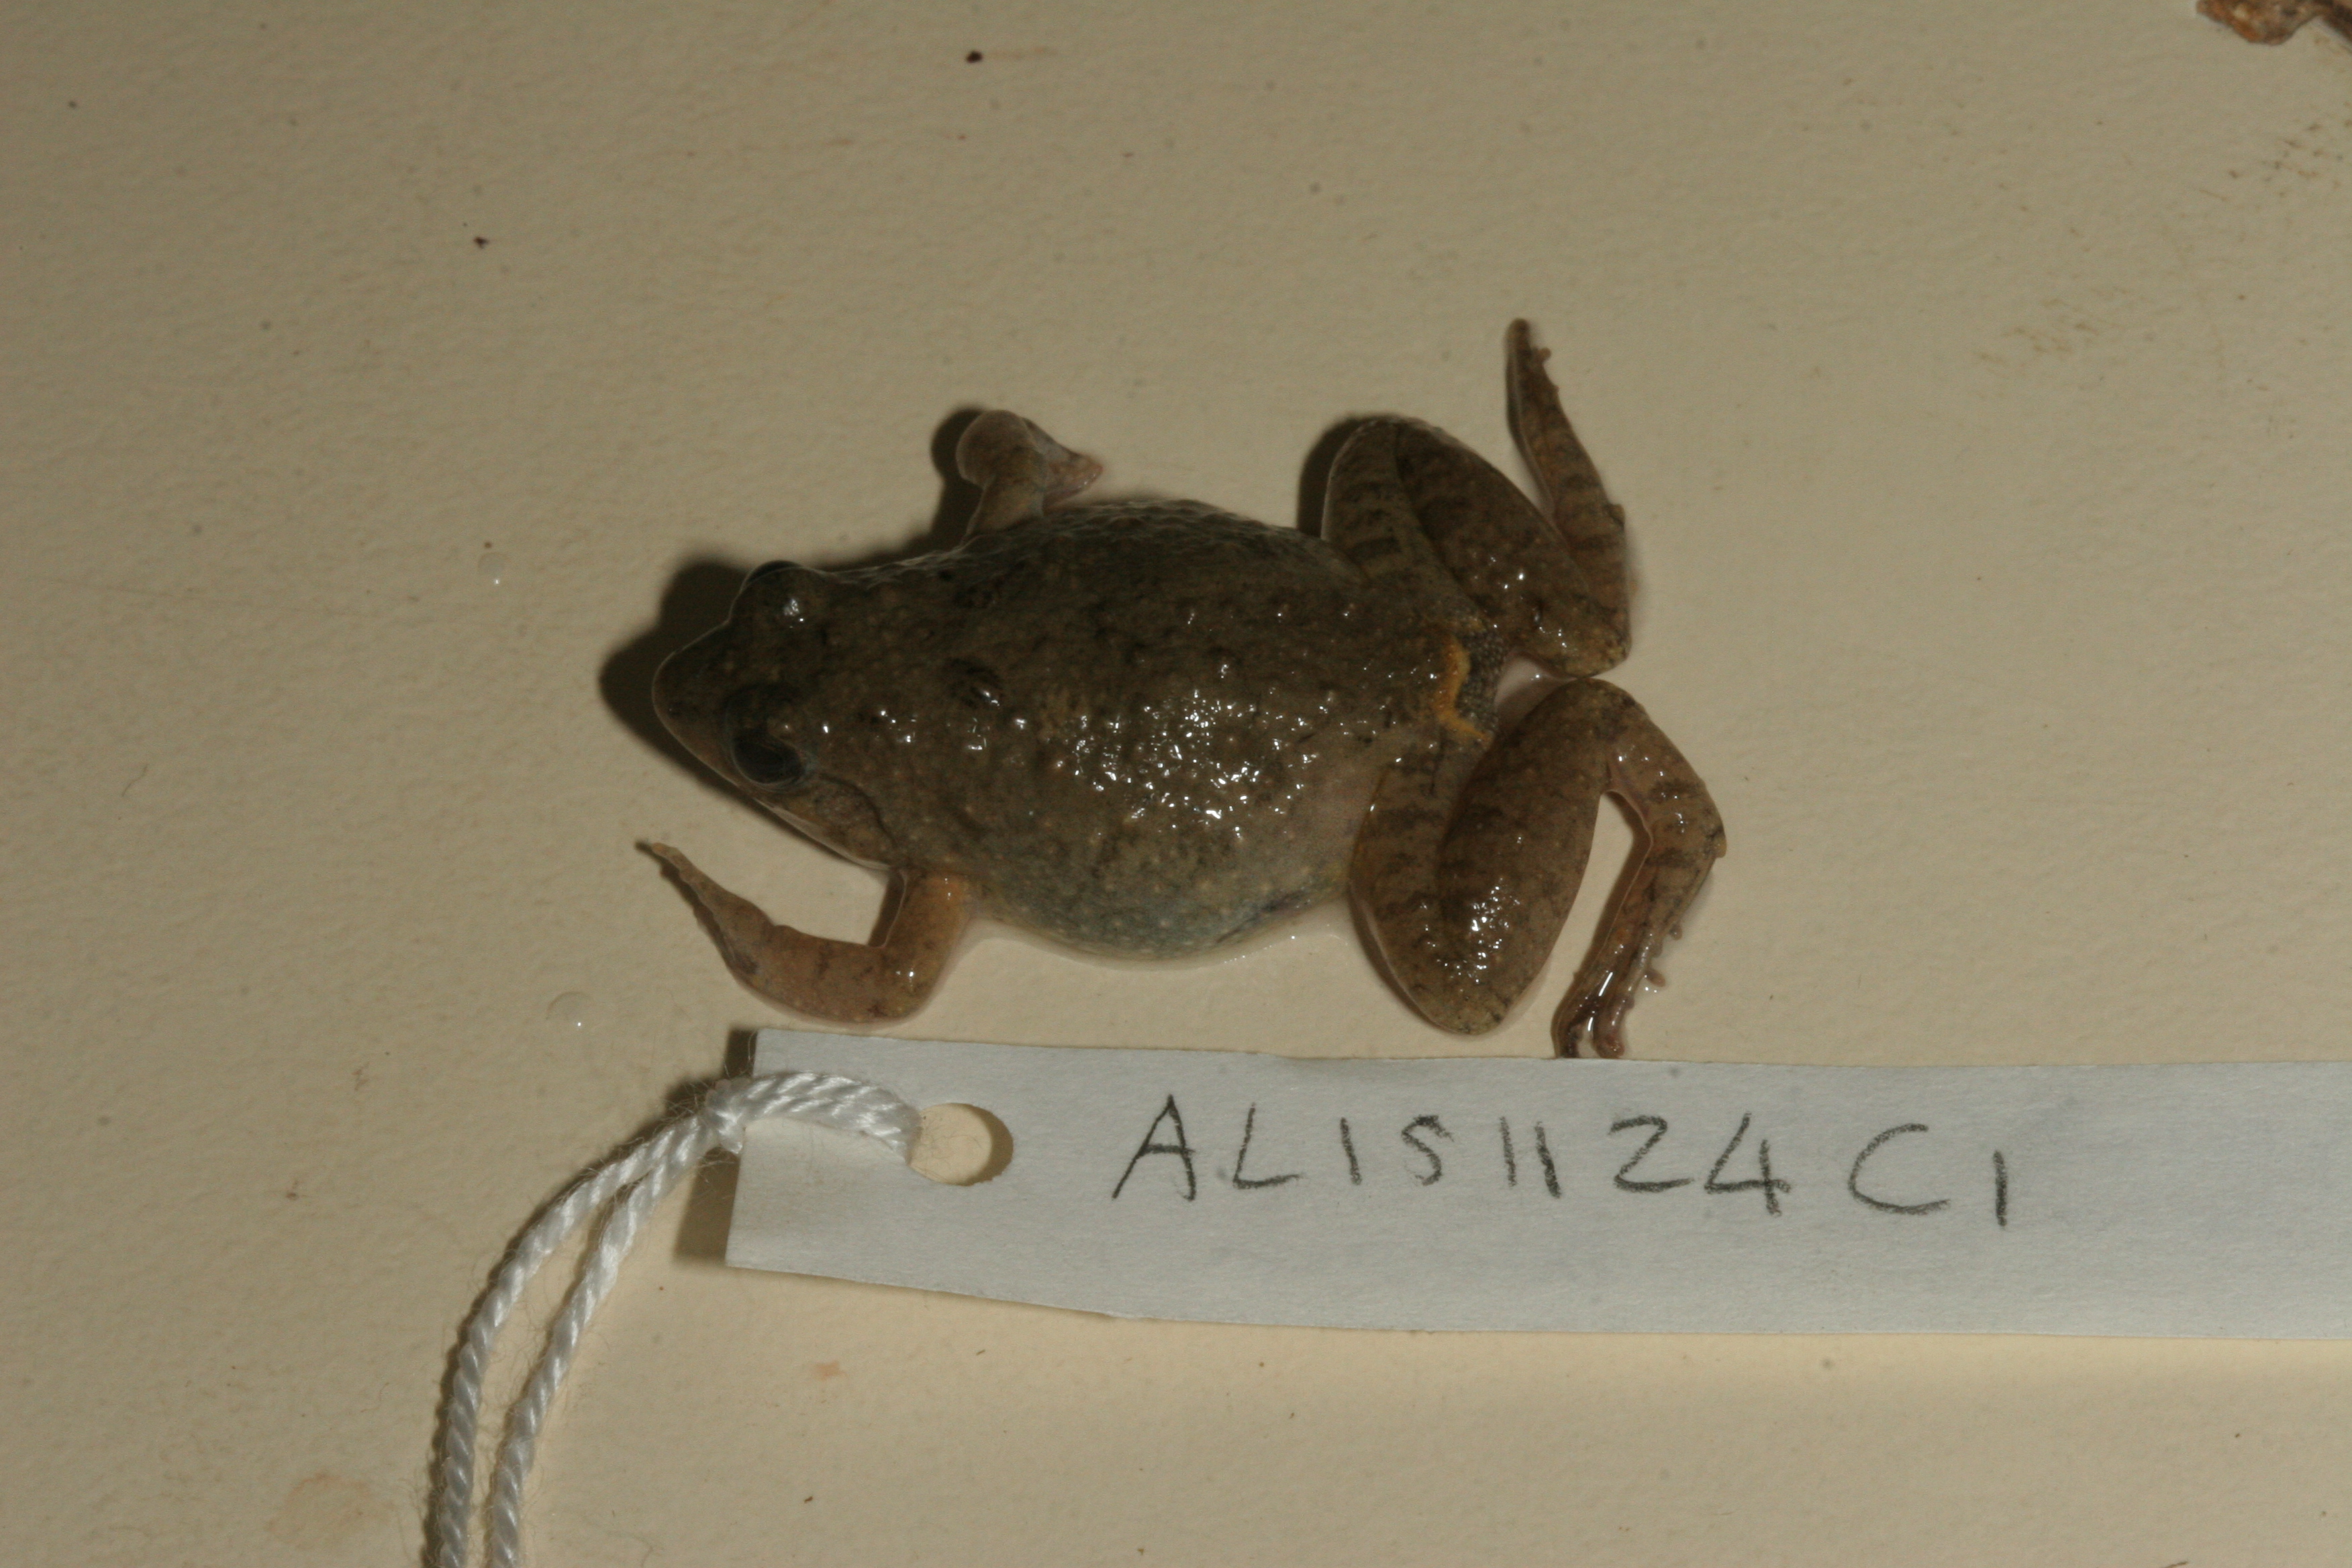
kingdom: Animalia
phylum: Chordata
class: Amphibia
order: Anura
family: Phrynobatrachidae
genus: Phrynobatrachus
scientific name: Phrynobatrachus natalensis
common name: Snoring puddle frog
